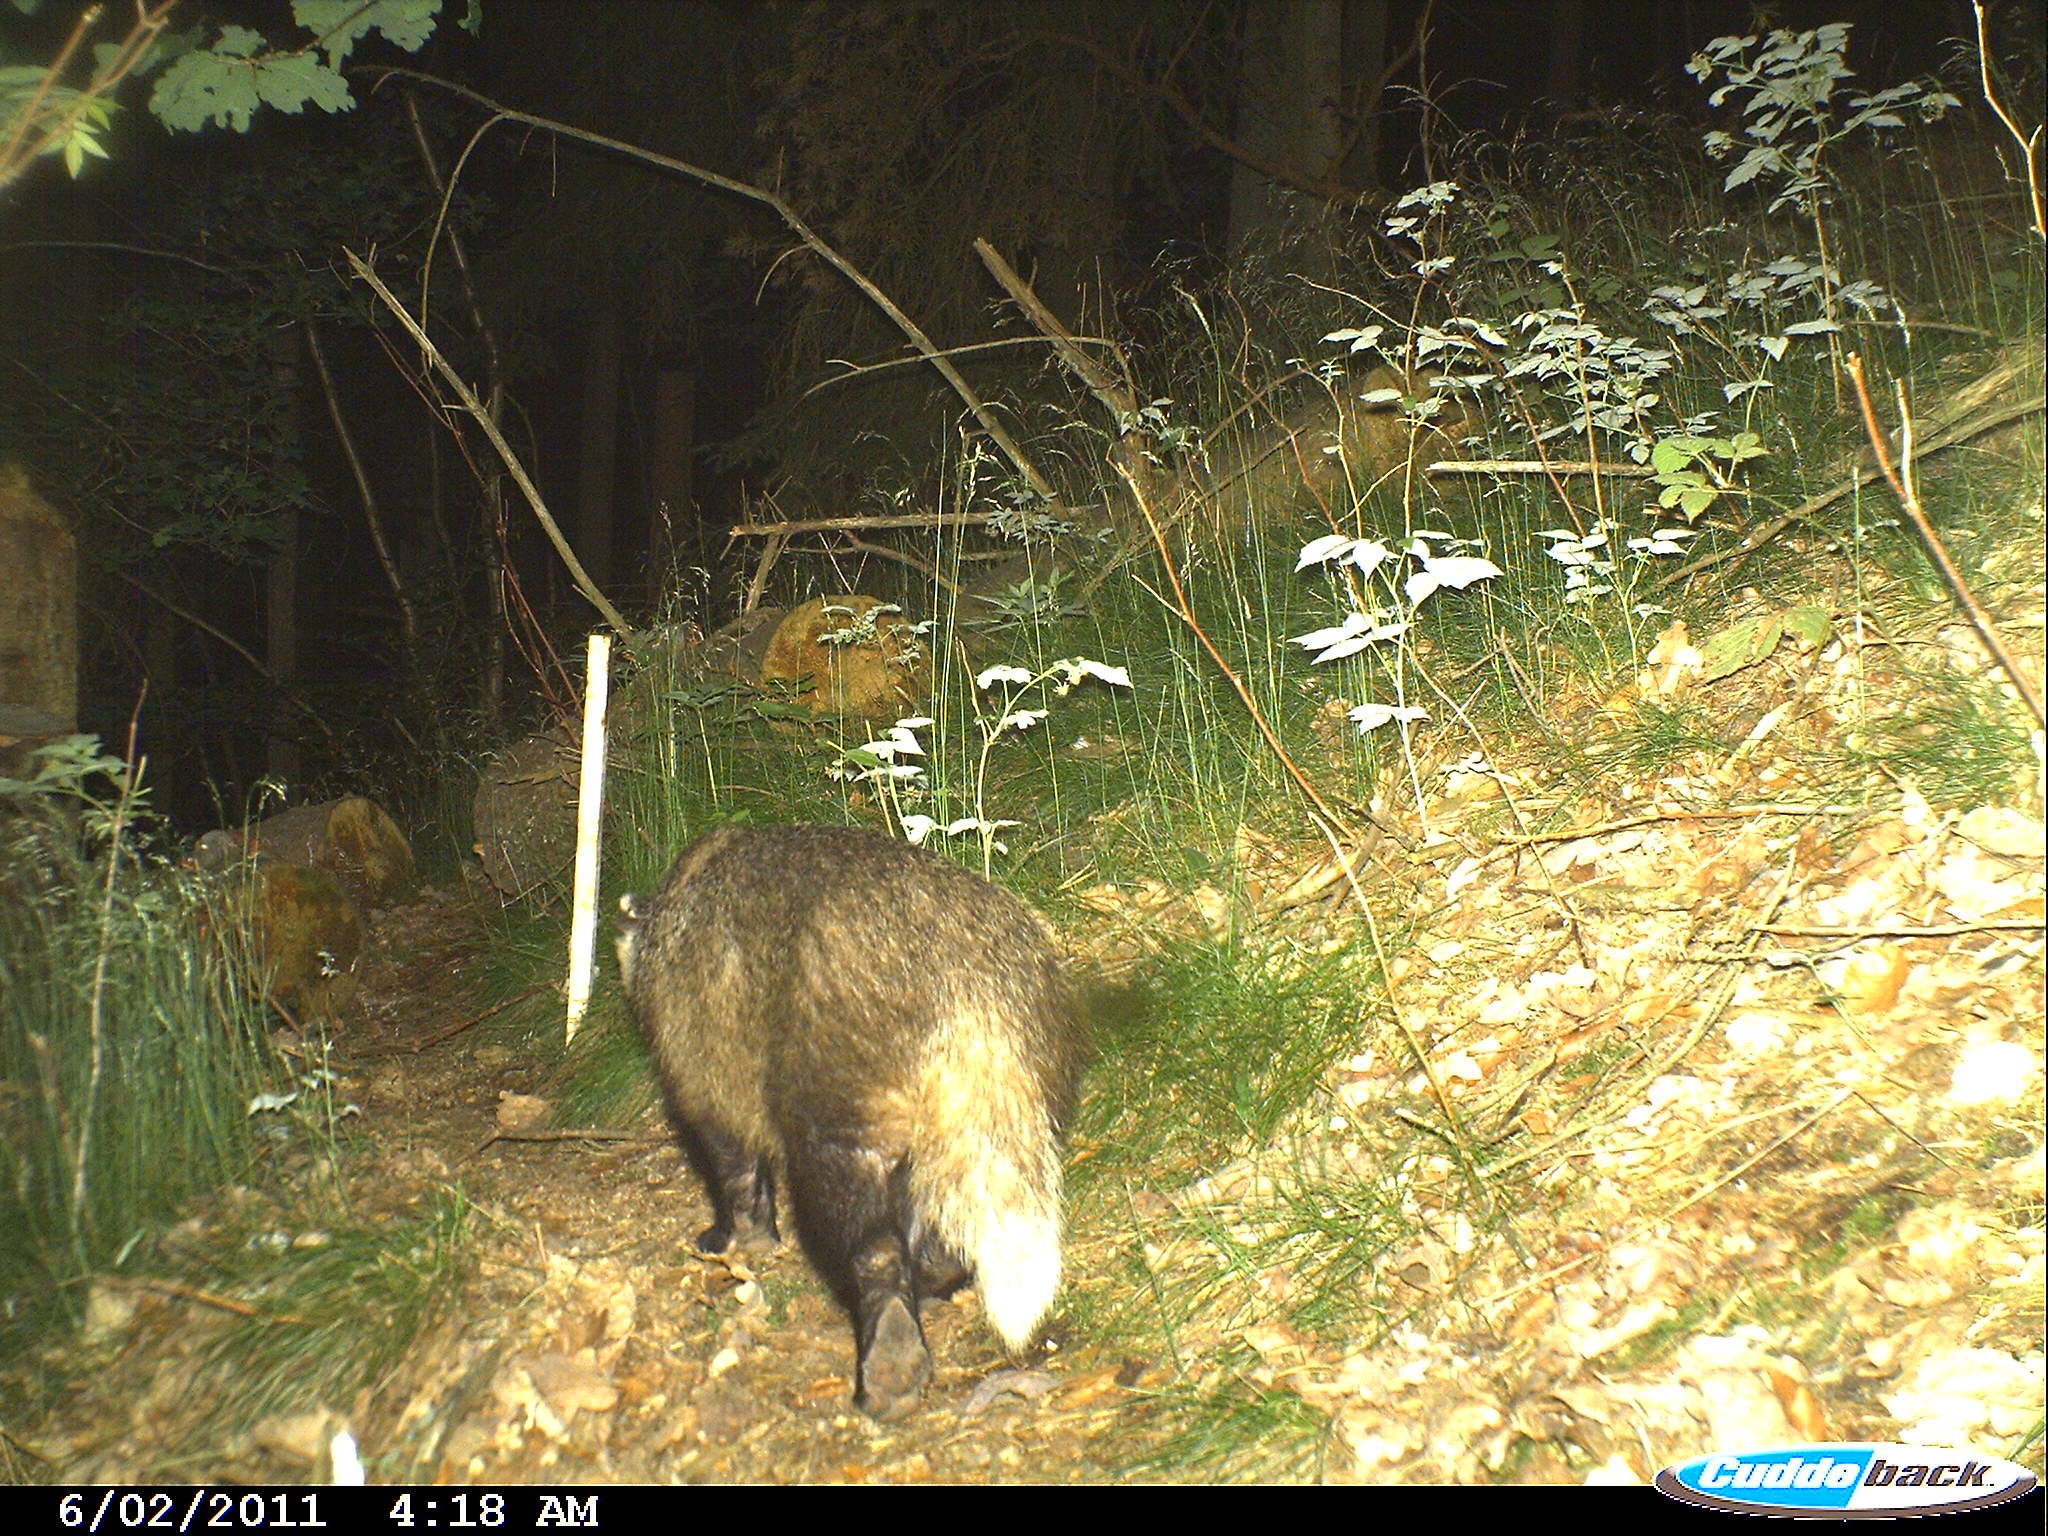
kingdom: Animalia
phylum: Chordata
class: Mammalia
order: Carnivora
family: Mustelidae
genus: Meles
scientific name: Meles meles
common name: Eurasian badger
